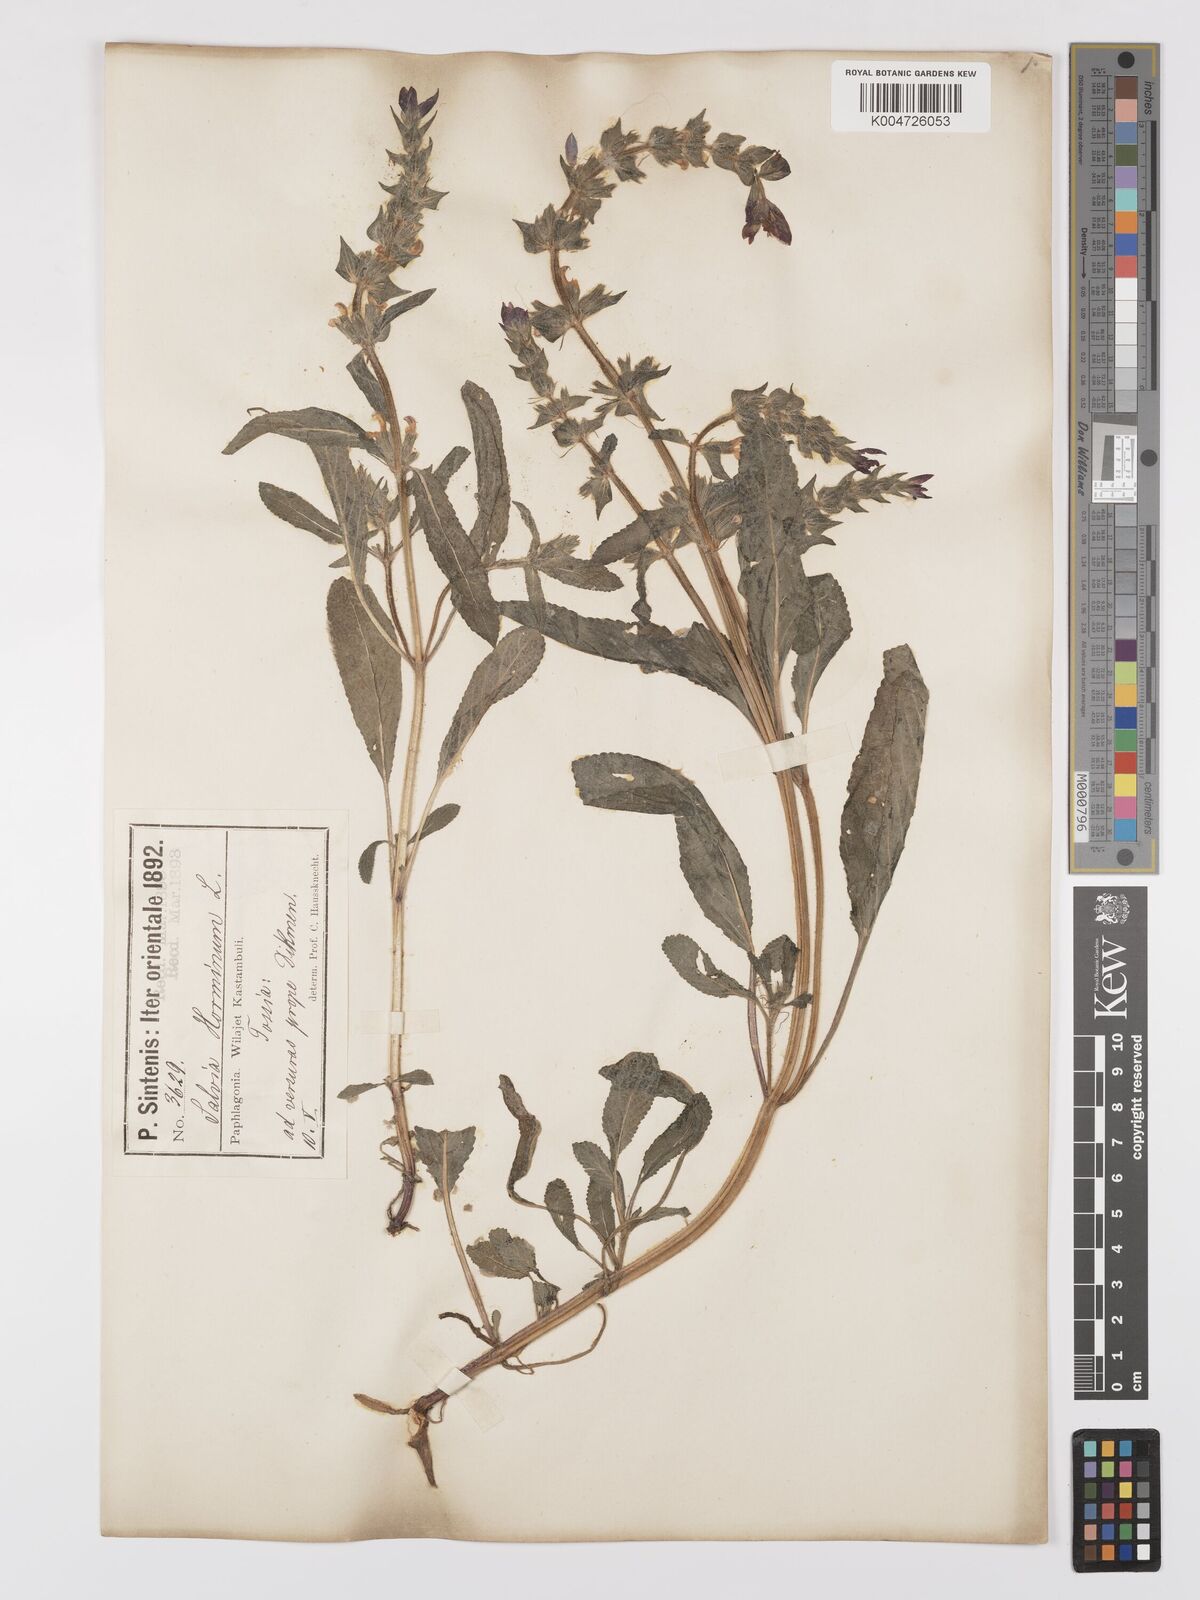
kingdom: Plantae
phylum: Tracheophyta
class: Magnoliopsida
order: Lamiales
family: Lamiaceae
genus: Salvia
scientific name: Salvia viridis
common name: Annual clary
